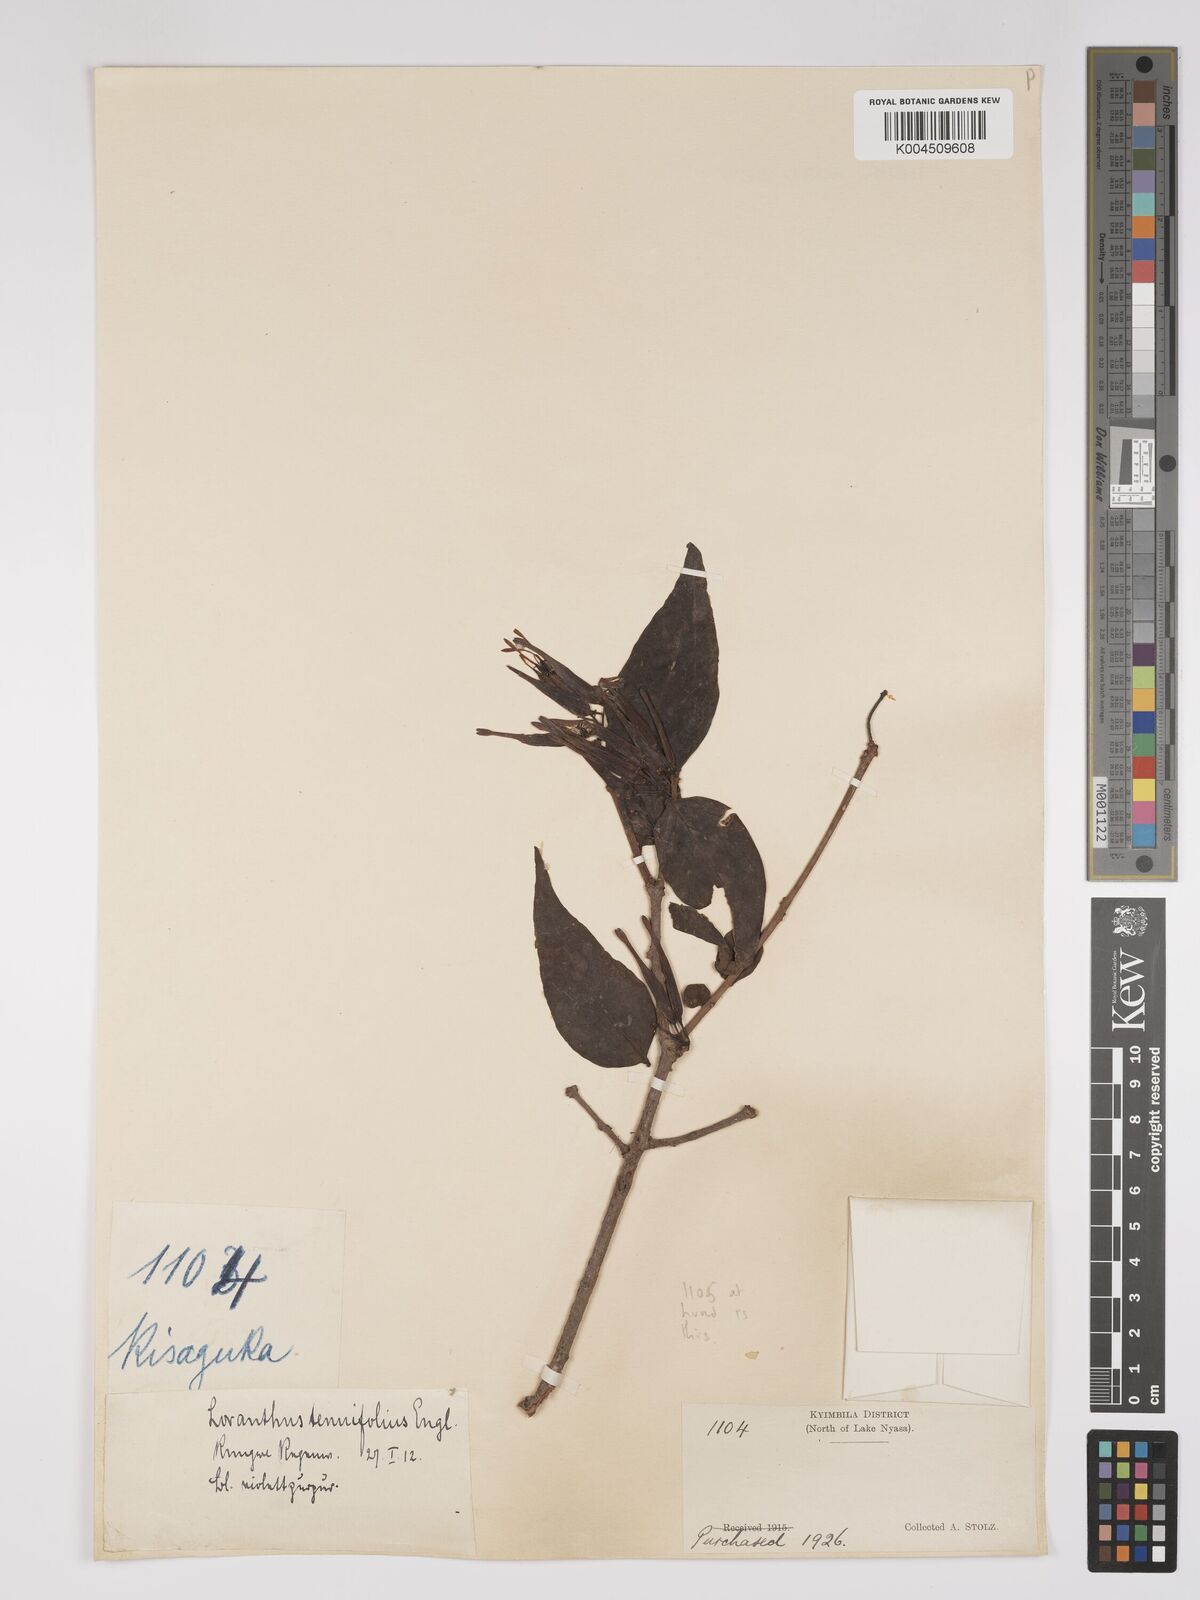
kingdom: Plantae
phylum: Tracheophyta
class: Magnoliopsida
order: Santalales
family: Loranthaceae
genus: Englerina
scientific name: Englerina inaequilatera
